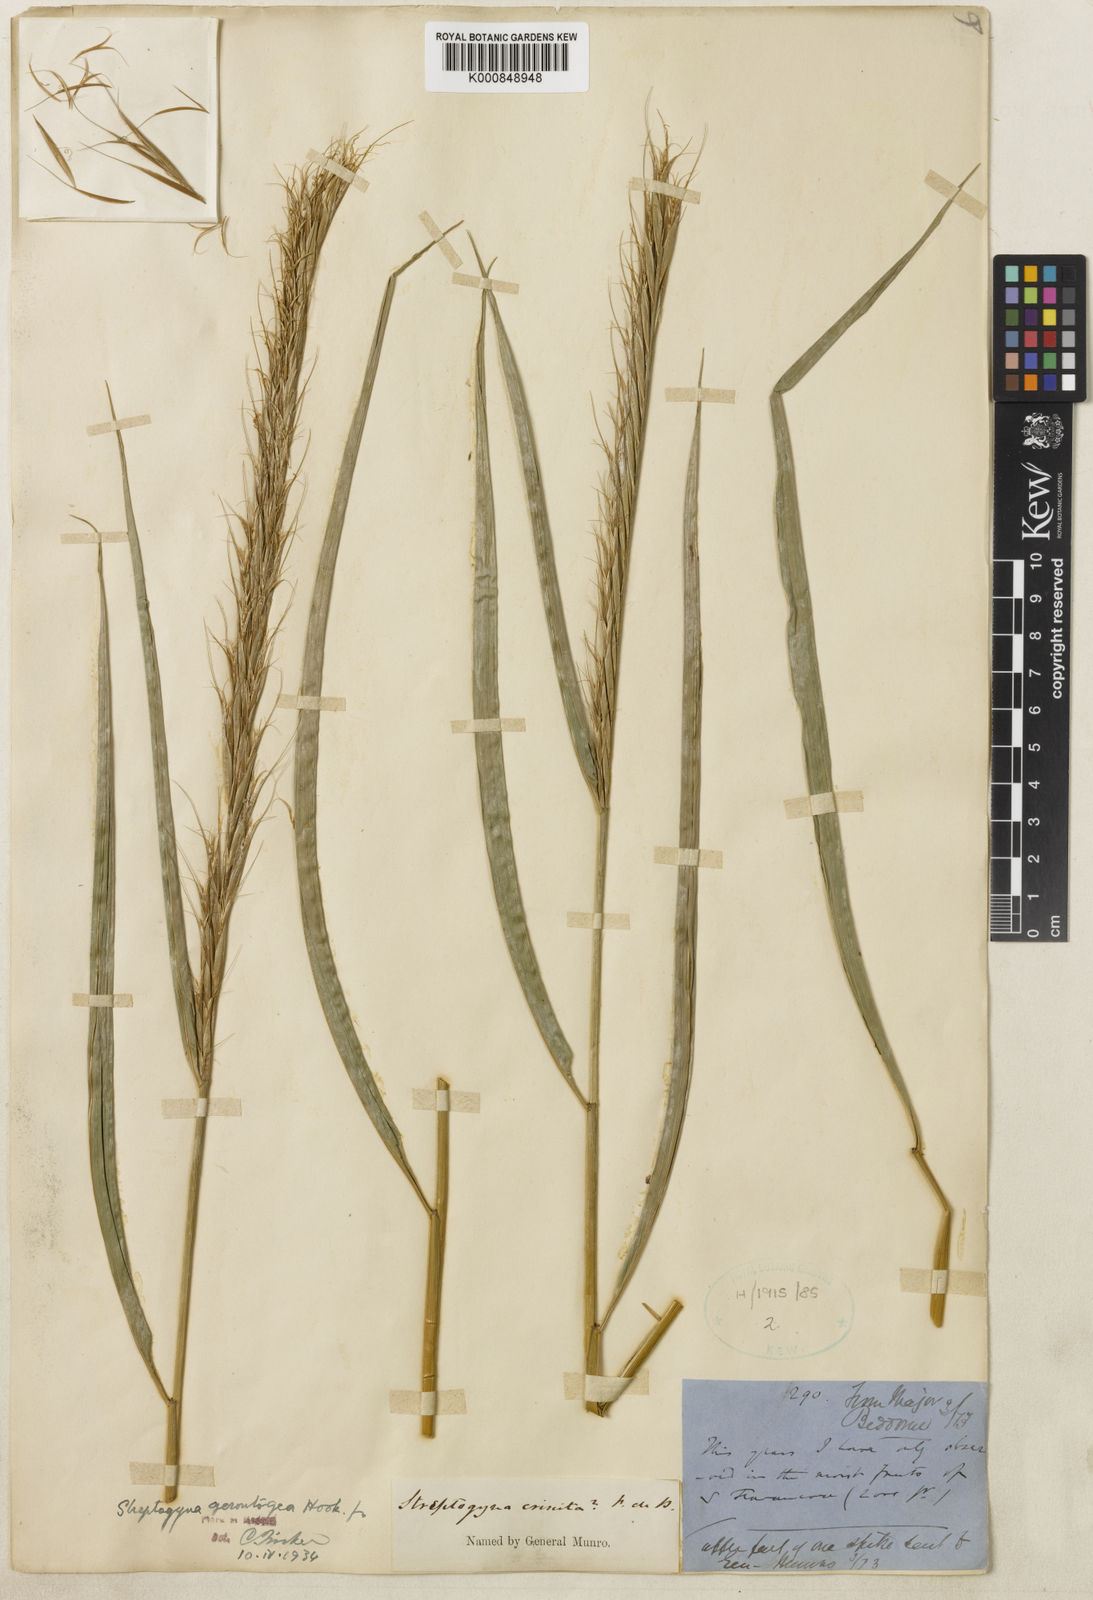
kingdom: Plantae
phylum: Tracheophyta
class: Liliopsida
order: Poales
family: Poaceae
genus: Streptogyna
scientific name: Streptogyna crinita
